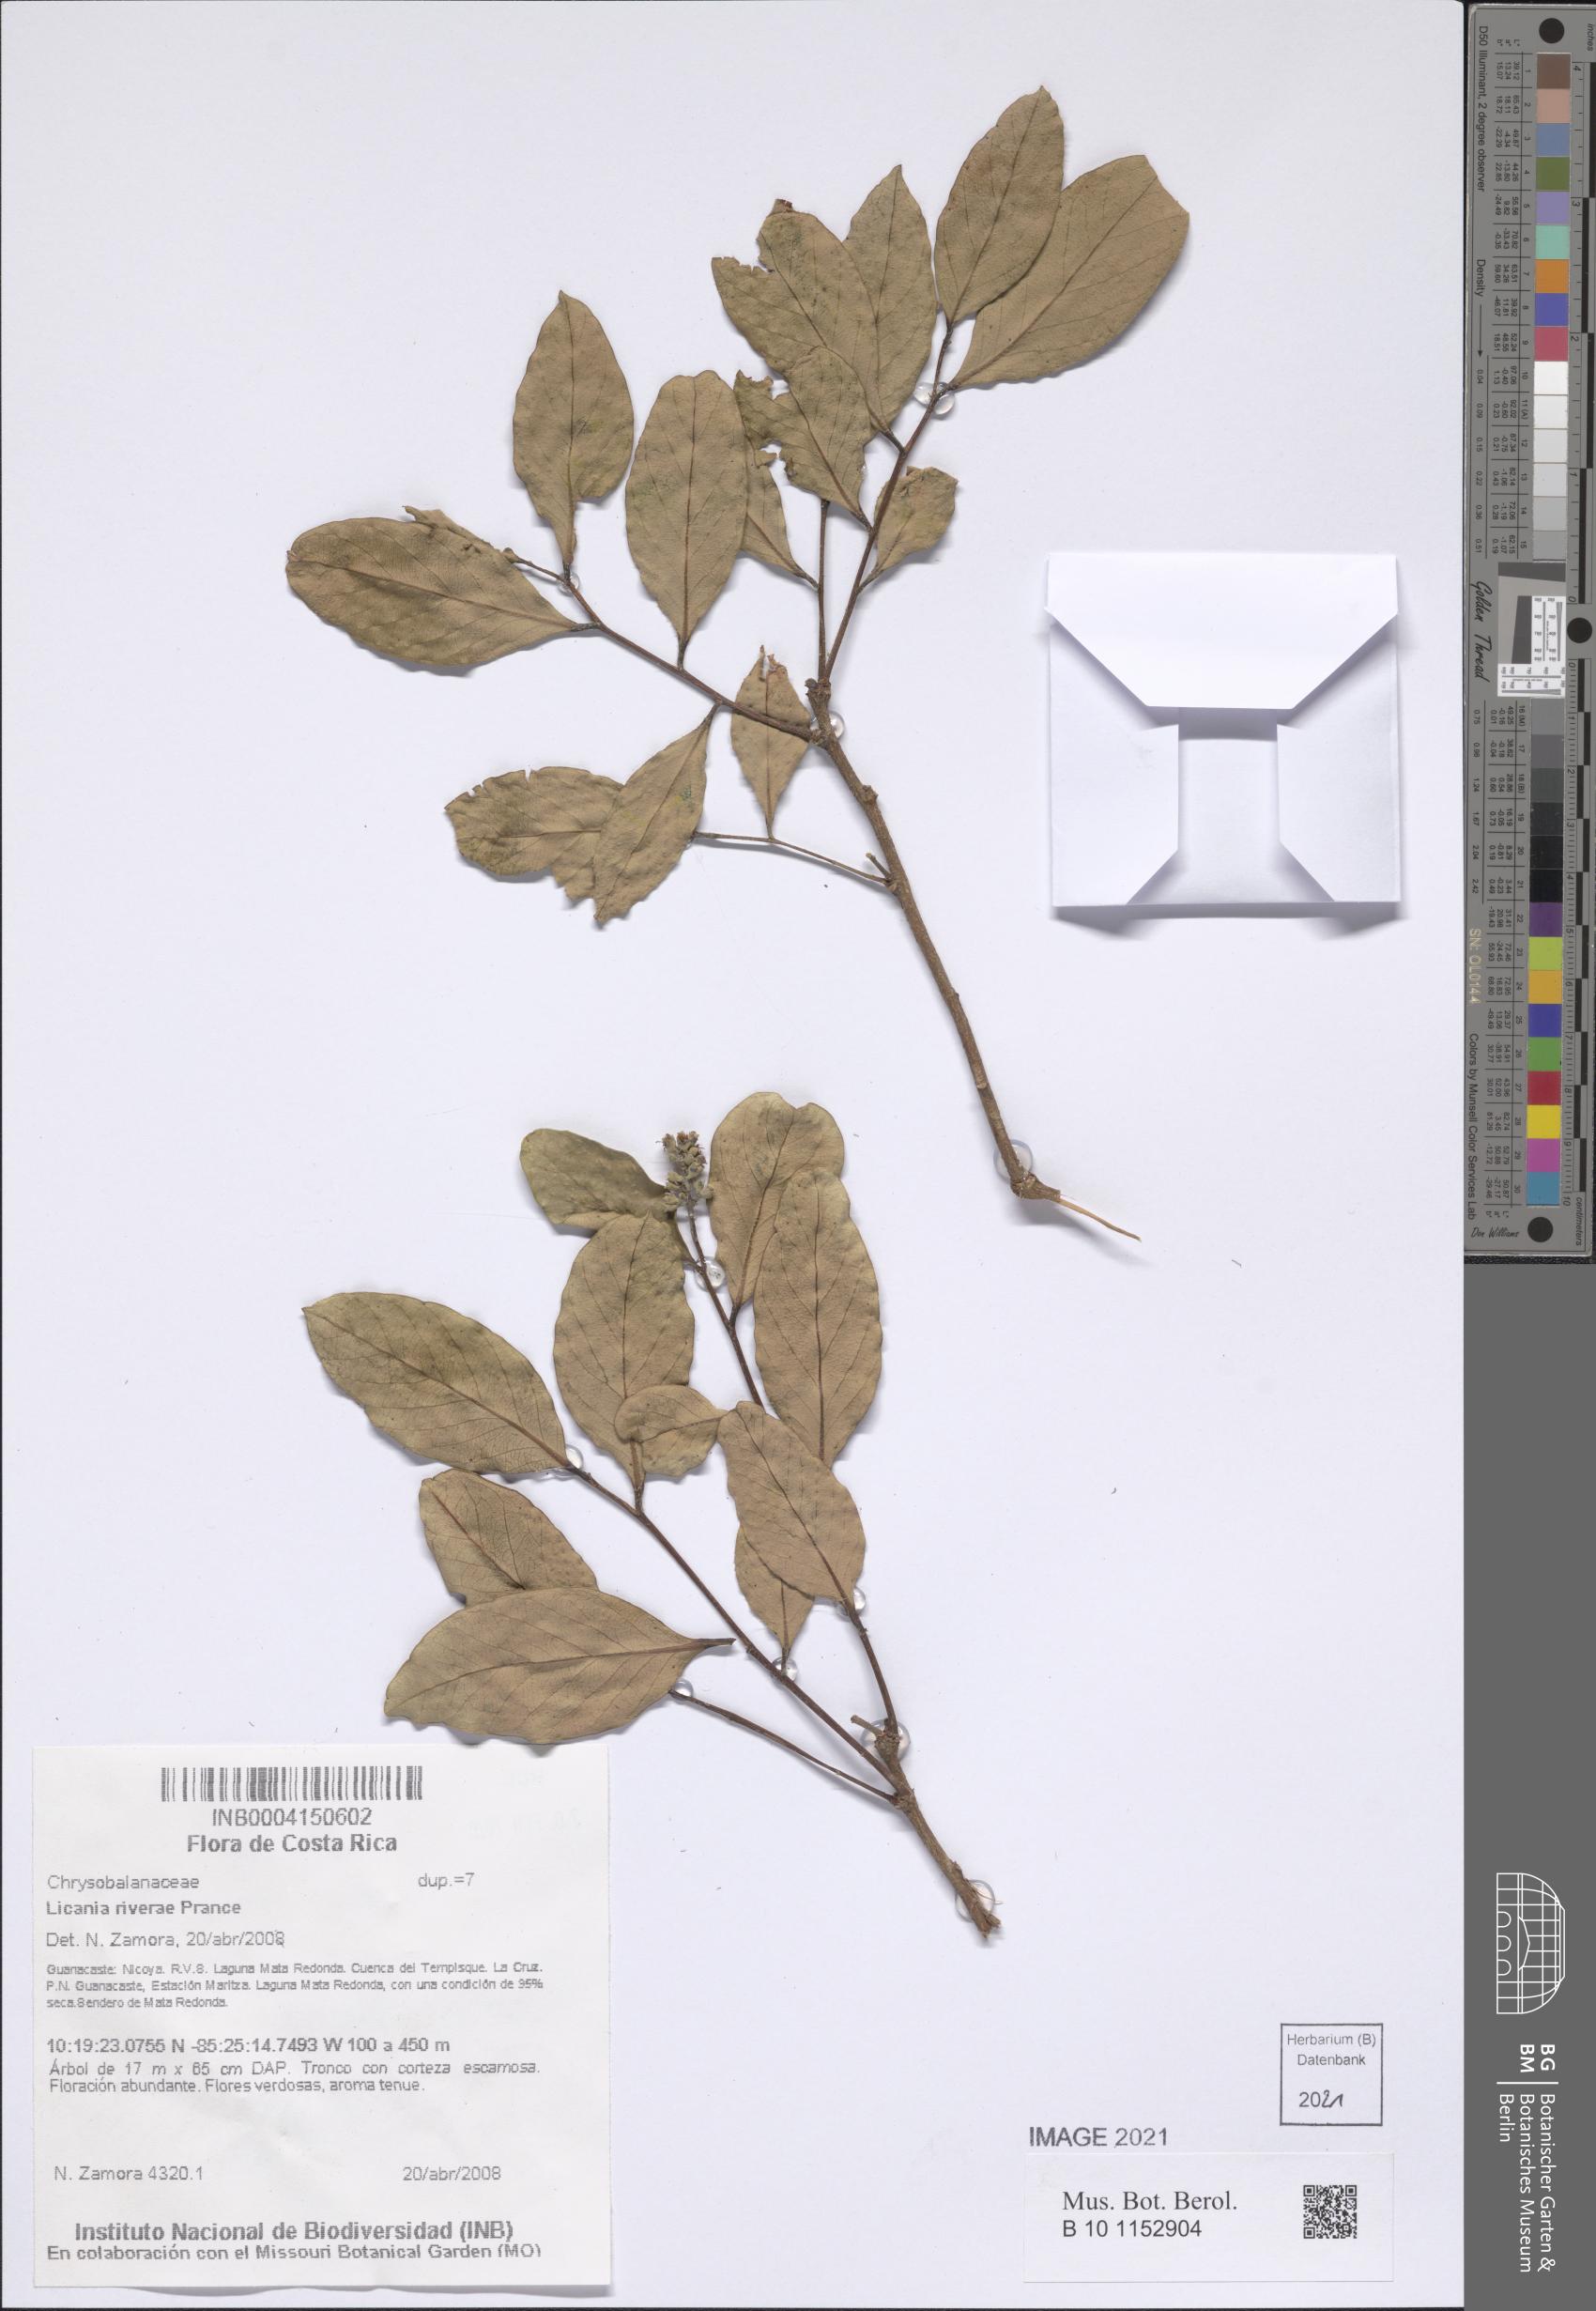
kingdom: Plantae
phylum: Tracheophyta
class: Magnoliopsida
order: Malpighiales
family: Chrysobalanaceae
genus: Geobalanus
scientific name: Geobalanus riverae
